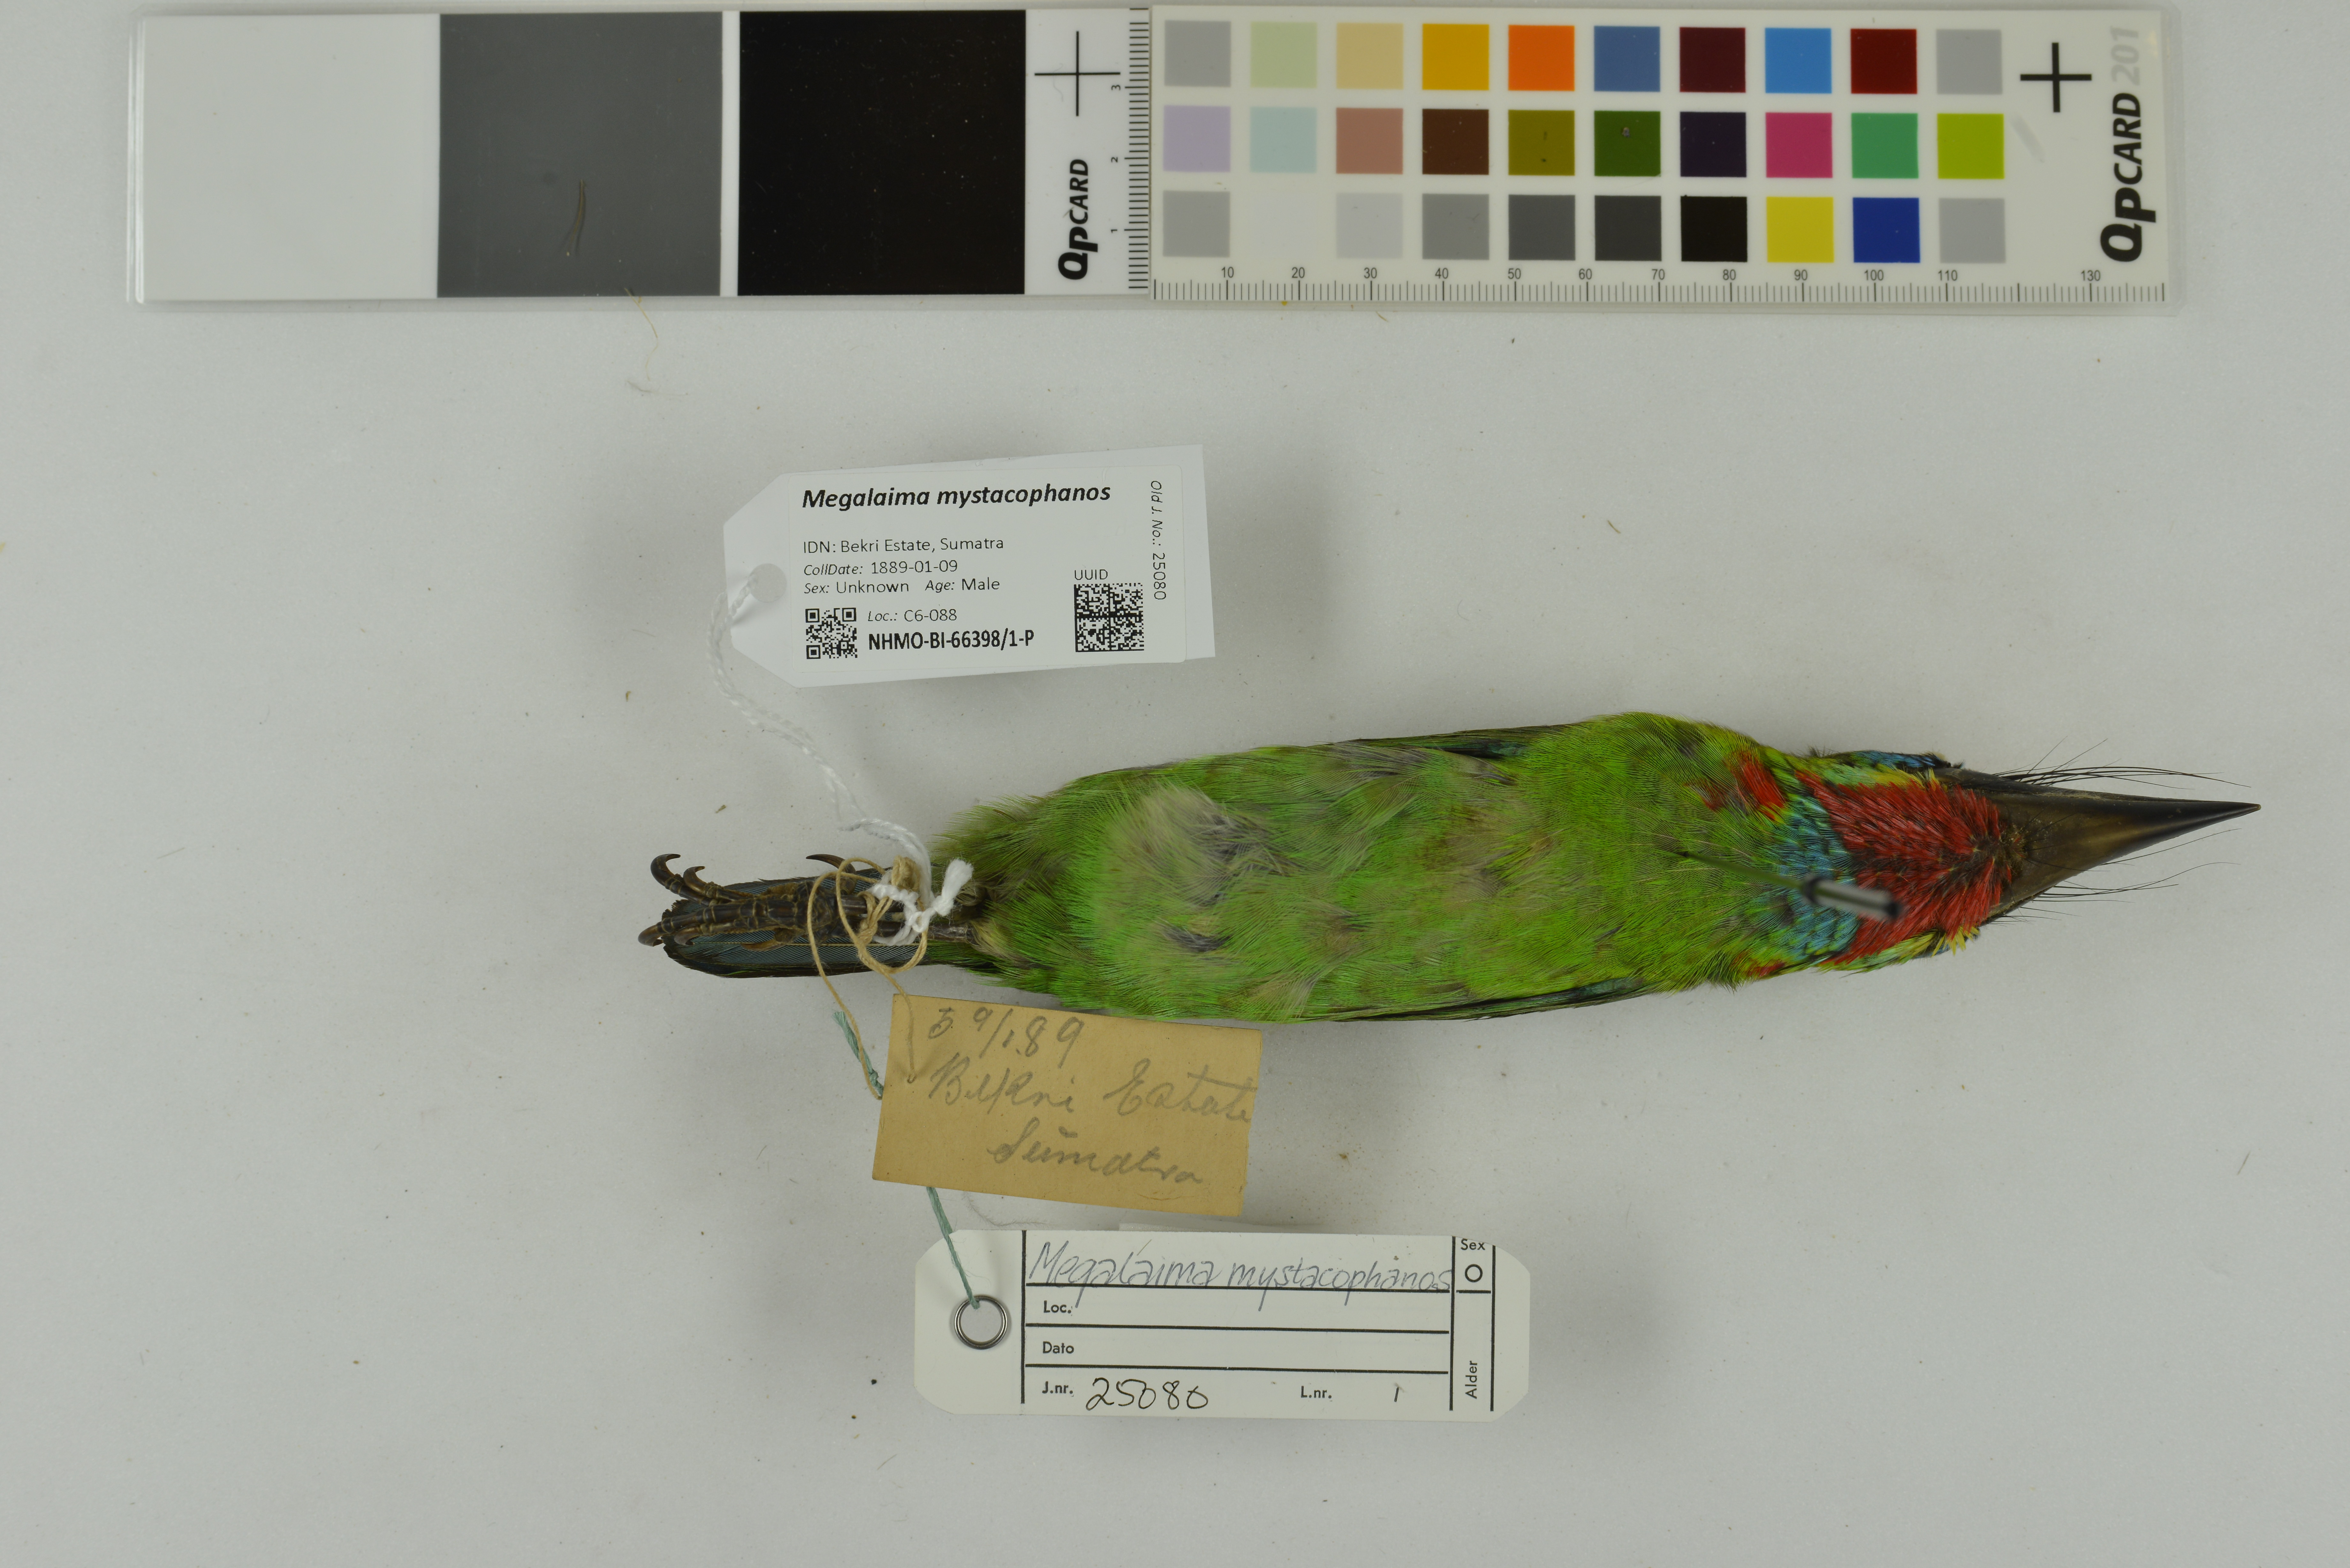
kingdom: Animalia
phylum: Chordata
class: Aves
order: Piciformes
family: Megalaimidae
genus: Psilopogon
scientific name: Psilopogon mystacophanos
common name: Red-throated barbet
